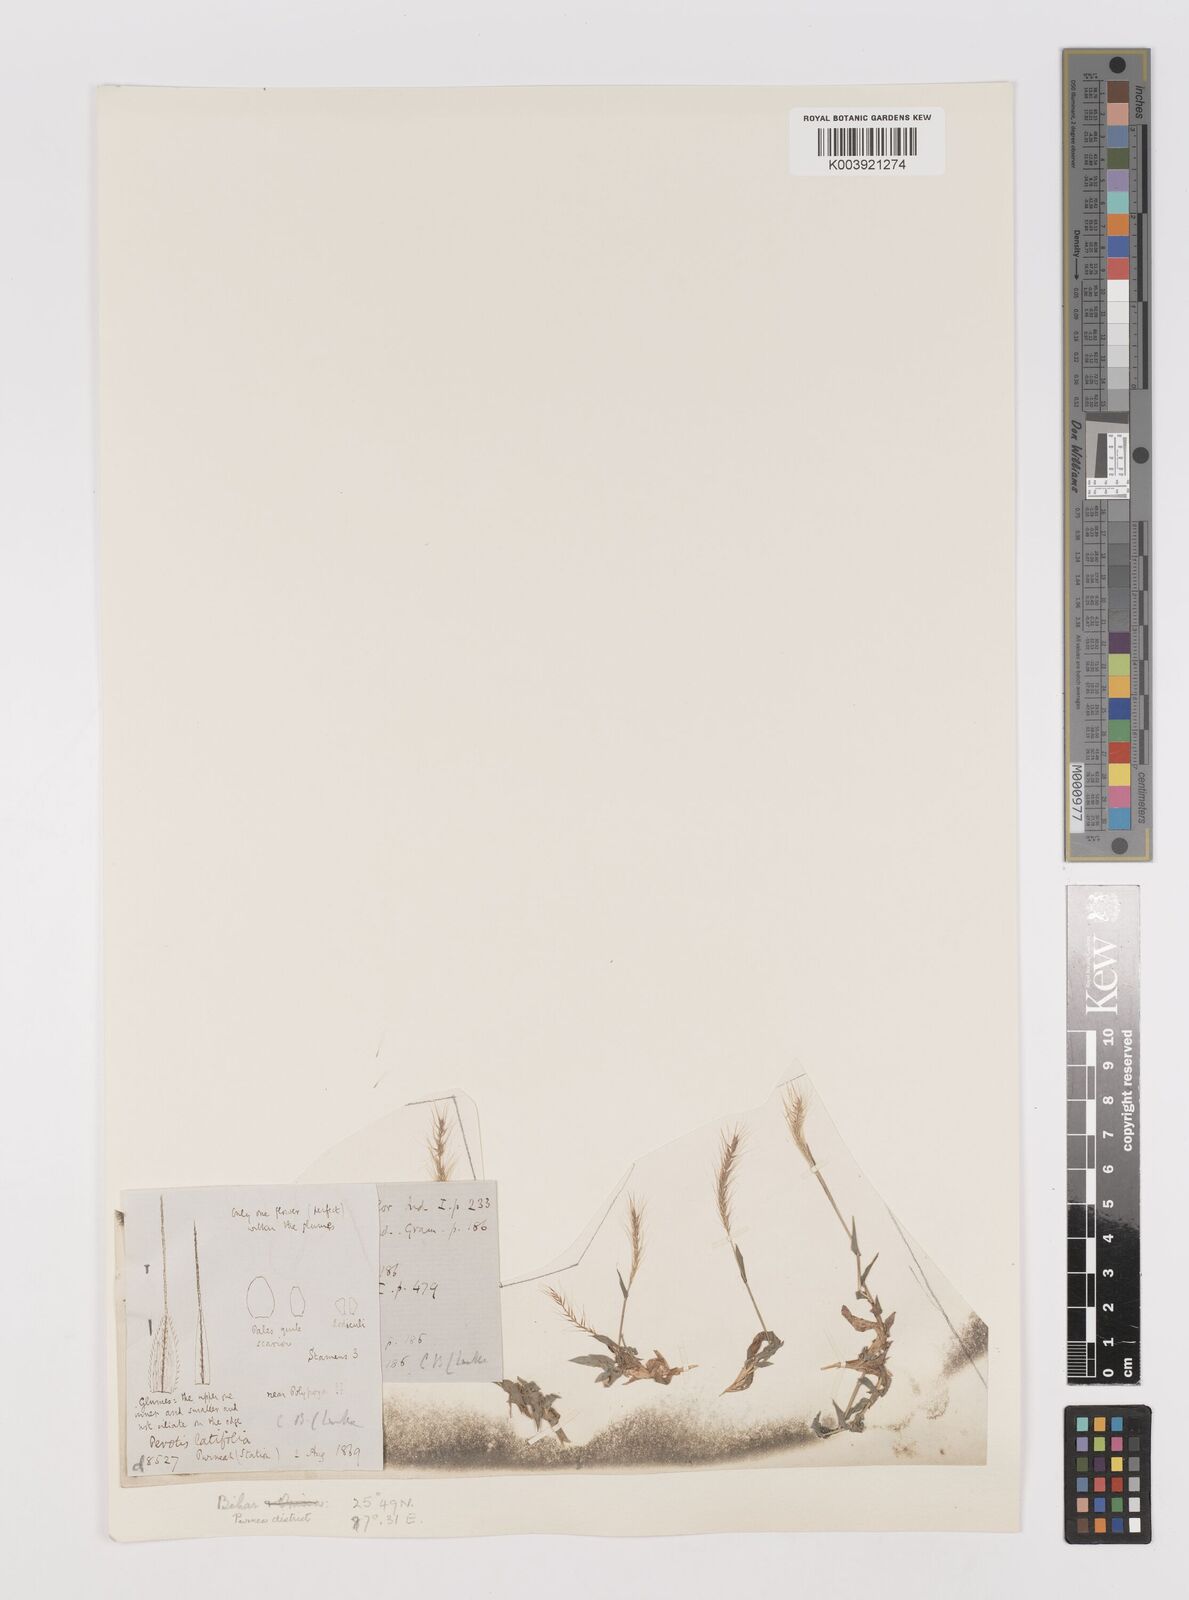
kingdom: Plantae
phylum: Tracheophyta
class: Liliopsida
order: Poales
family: Poaceae
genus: Perotis
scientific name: Perotis hordeiformis
